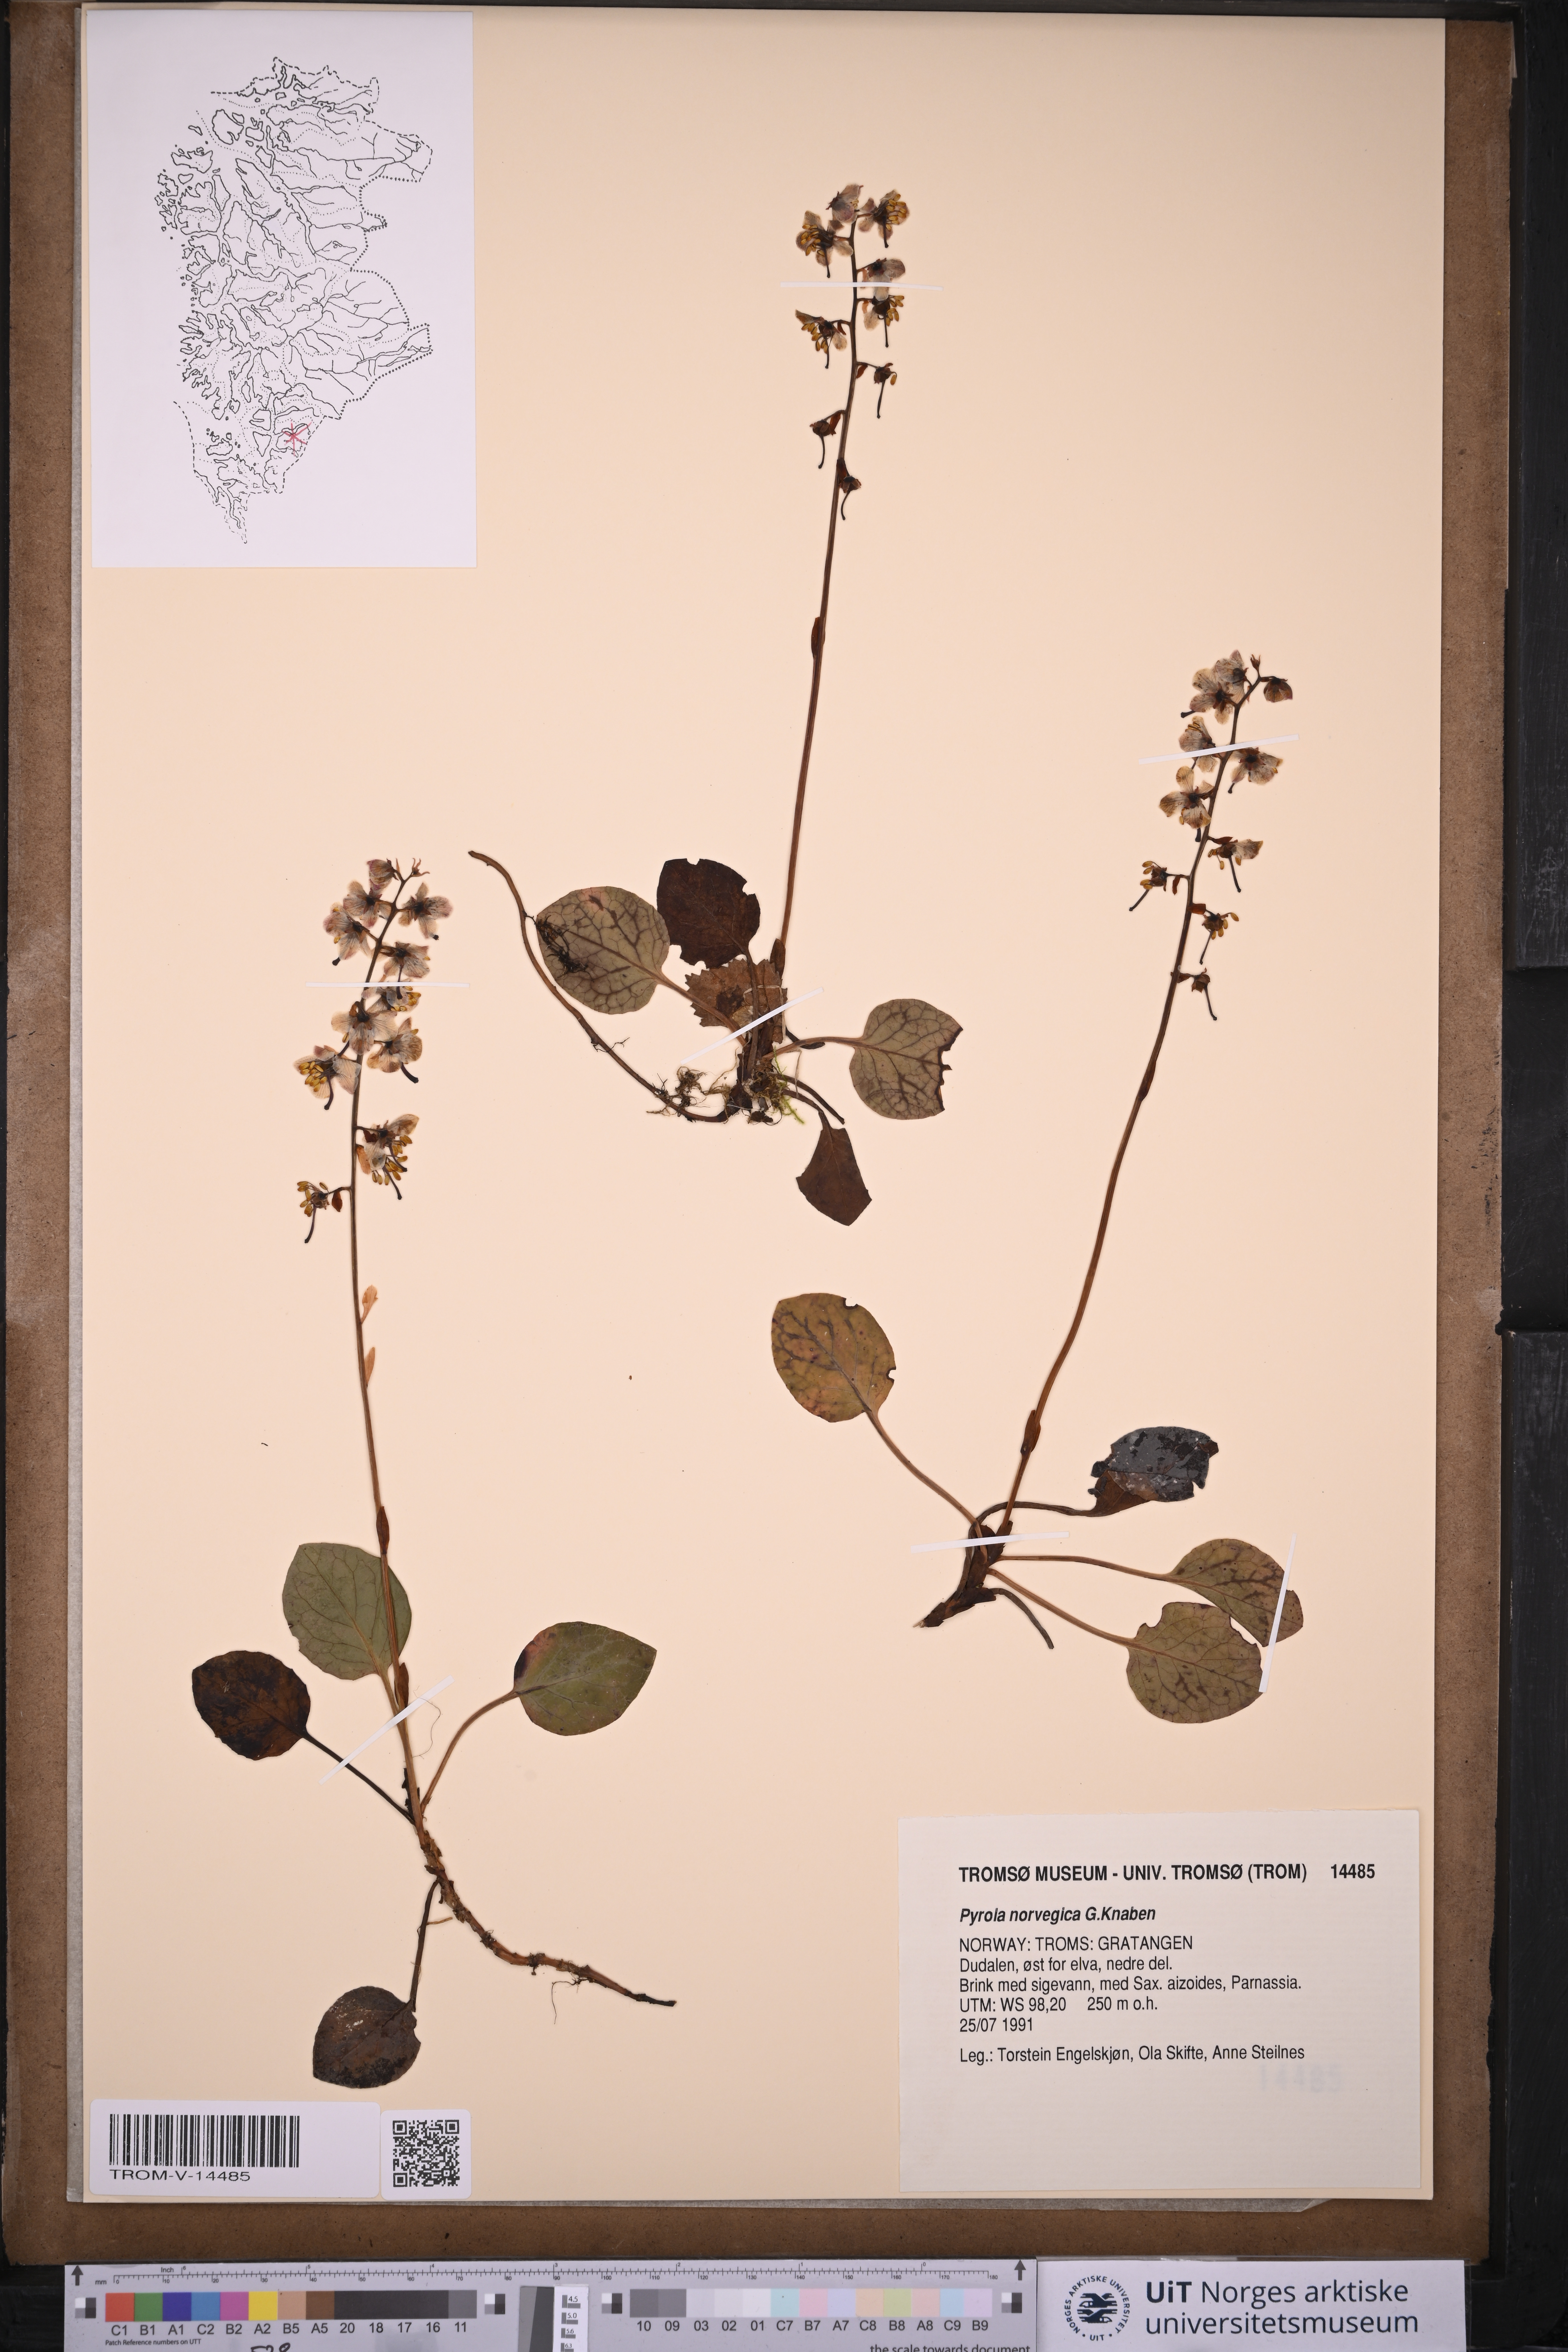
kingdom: Plantae
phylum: Tracheophyta
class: Magnoliopsida
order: Ericales
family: Ericaceae
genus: Pyrola
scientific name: Pyrola rotundifolia
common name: Round-leaved wintergreen
